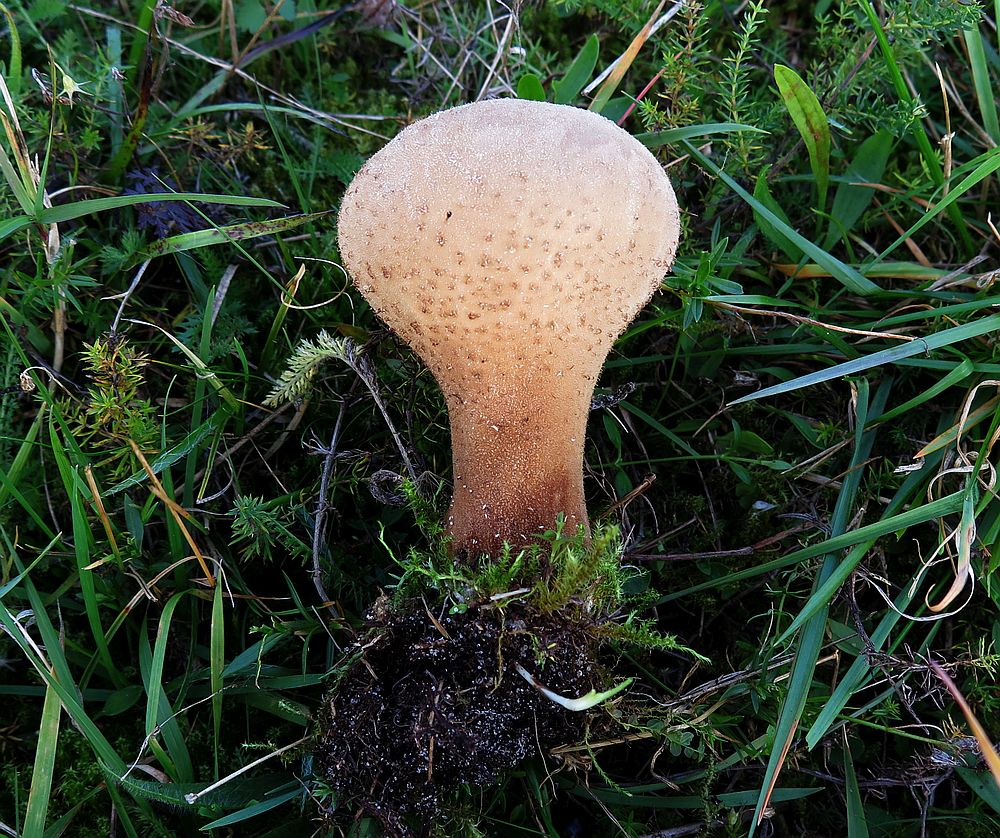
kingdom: Fungi
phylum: Basidiomycota
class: Agaricomycetes
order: Agaricales
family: Lycoperdaceae
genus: Lycoperdon
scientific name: Lycoperdon excipuliforme
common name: højstokket støvbold
